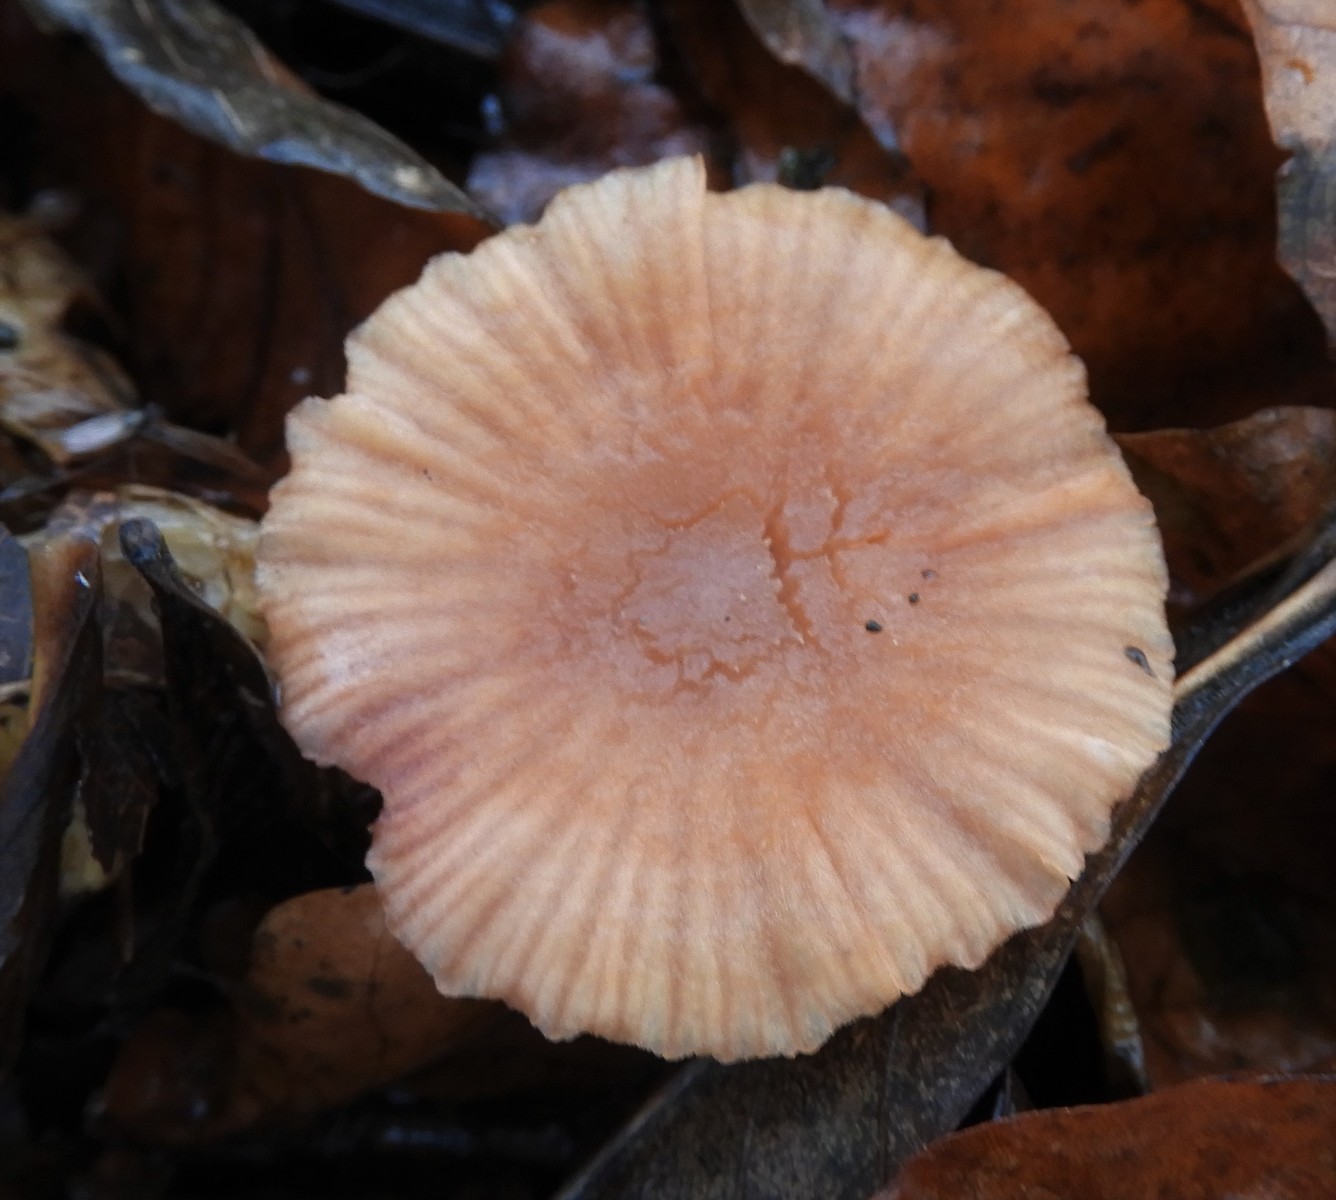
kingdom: Fungi
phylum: Basidiomycota
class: Agaricomycetes
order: Agaricales
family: Hydnangiaceae
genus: Laccaria
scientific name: Laccaria proxima
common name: stor ametysthat
